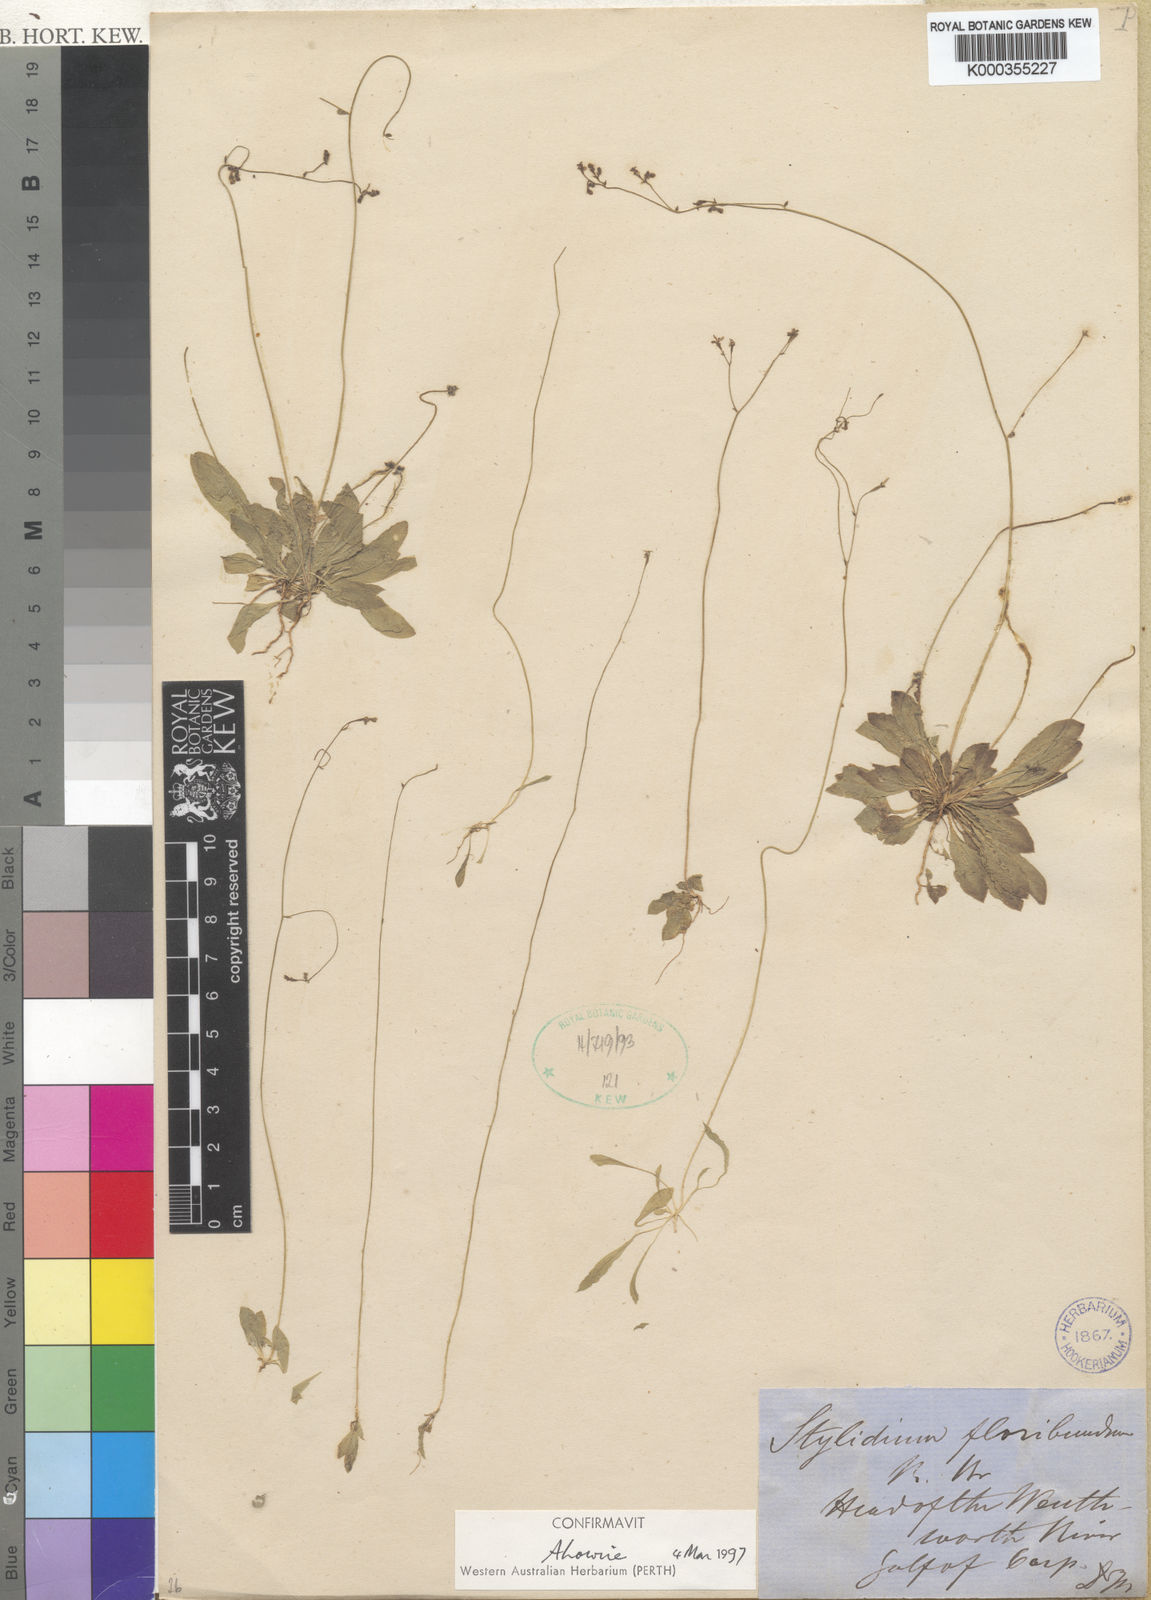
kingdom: Plantae
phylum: Tracheophyta
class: Magnoliopsida
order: Asterales
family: Stylidiaceae
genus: Stylidium
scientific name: Stylidium floribundum
